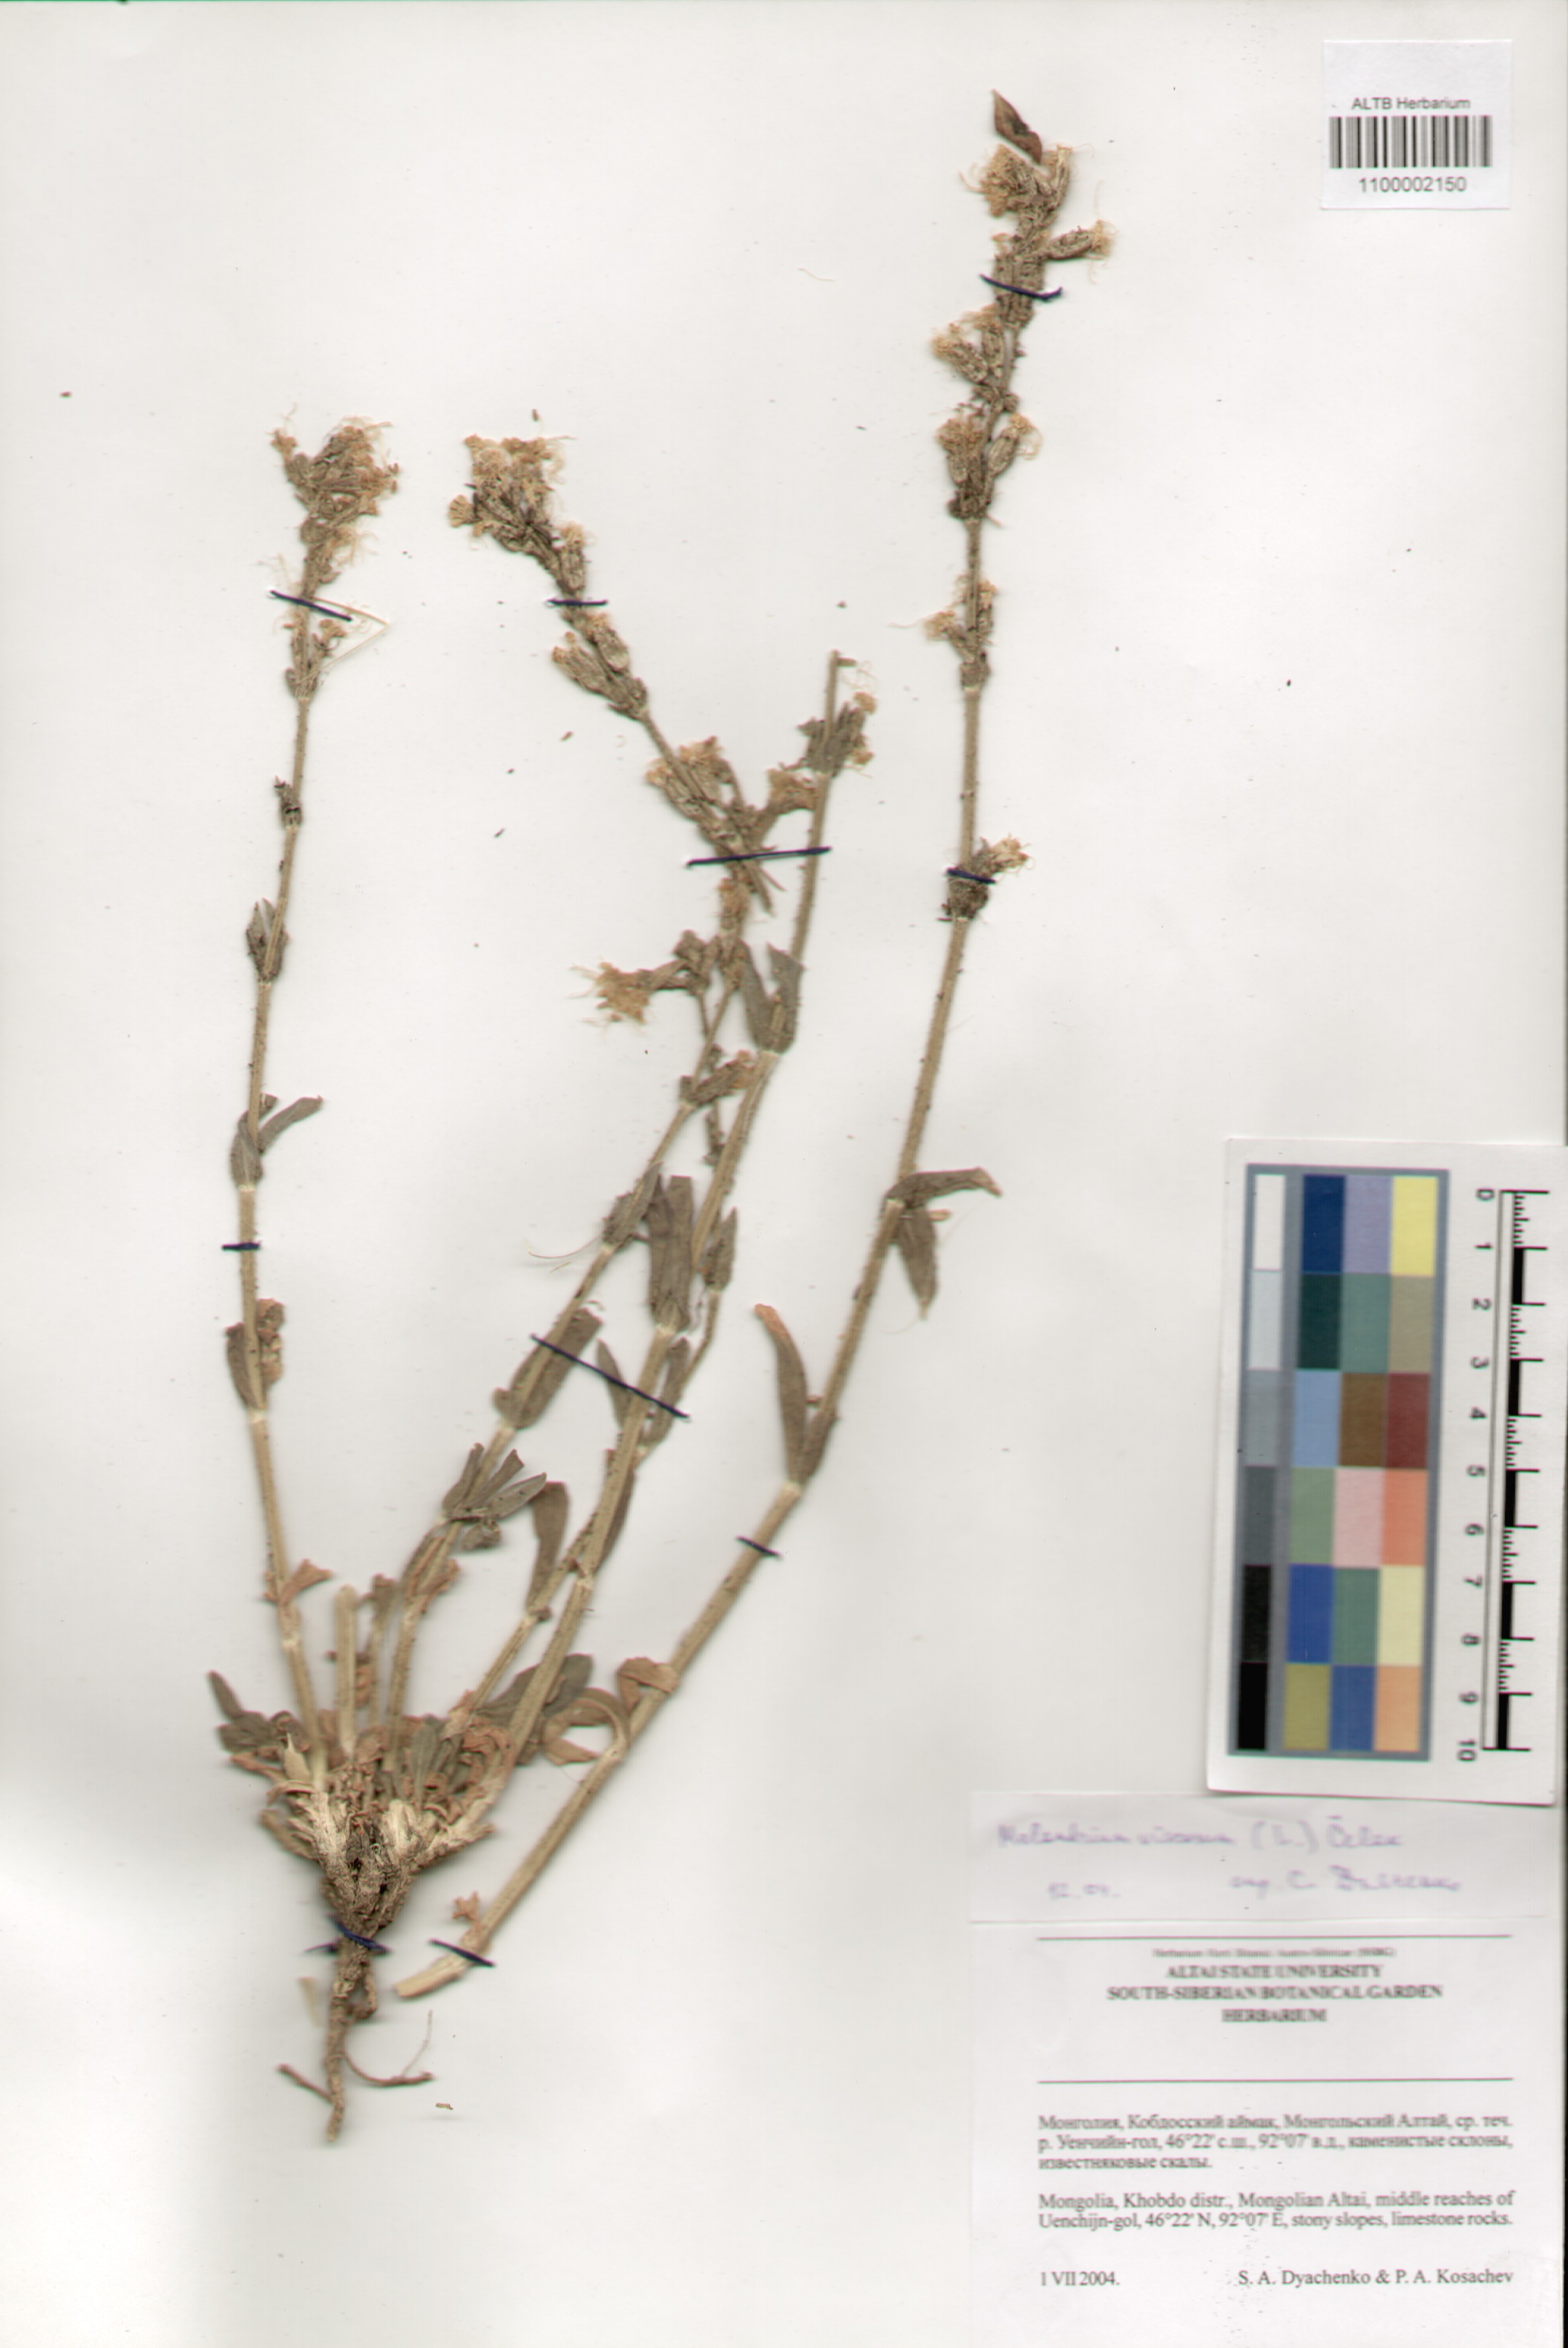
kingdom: Plantae
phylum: Tracheophyta
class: Magnoliopsida
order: Caryophyllales
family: Caryophyllaceae
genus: Silene
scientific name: Silene viscosa
